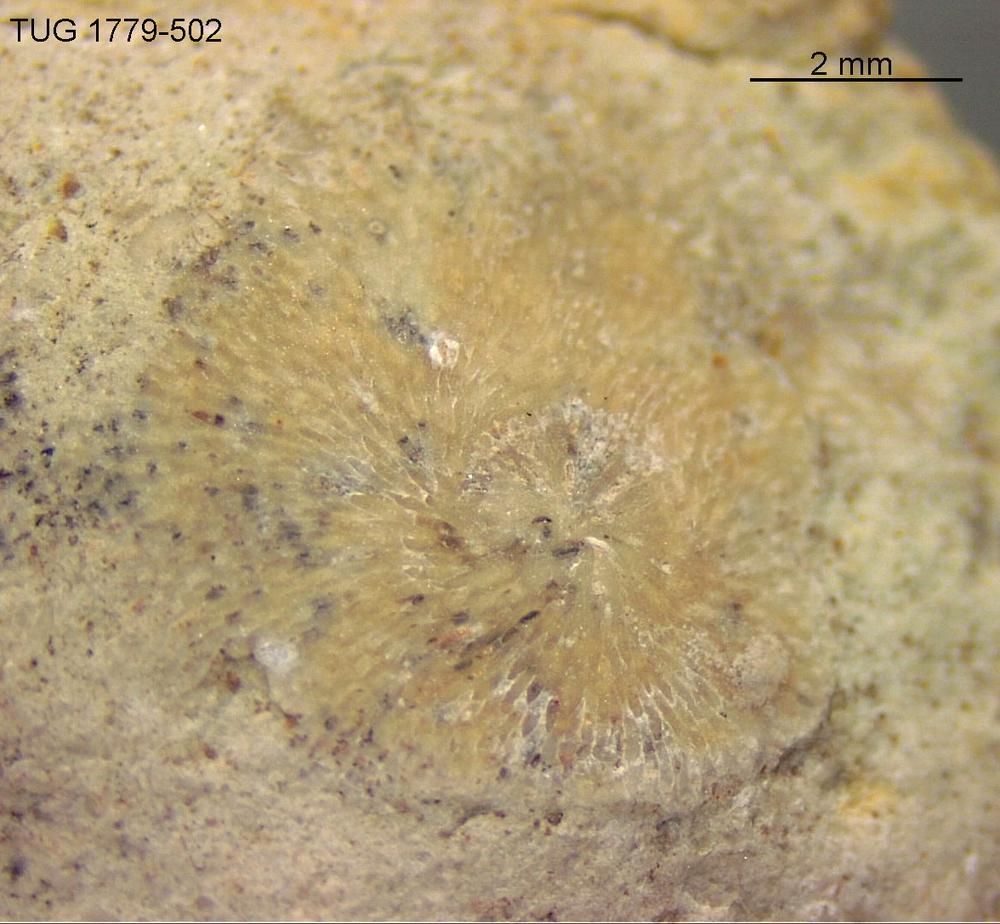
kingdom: Animalia
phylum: Bryozoa
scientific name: Bryozoa
